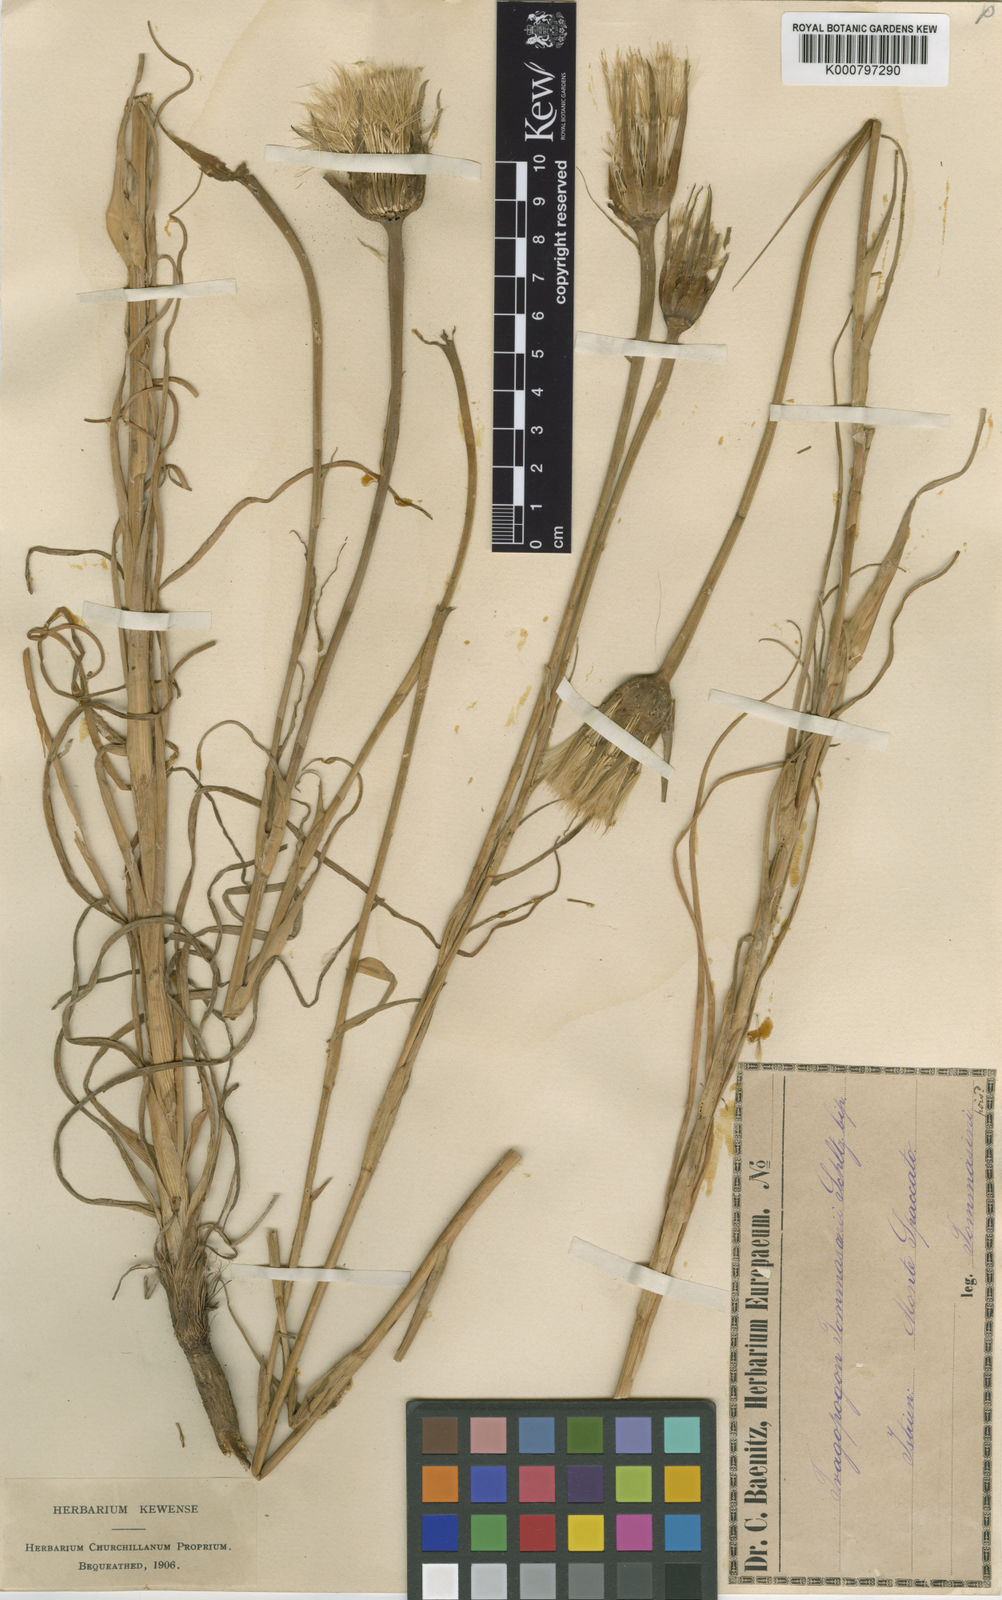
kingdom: Plantae
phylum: Tracheophyta
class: Magnoliopsida
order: Asterales
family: Asteraceae
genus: Tragopogon
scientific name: Tragopogon tommasinii
